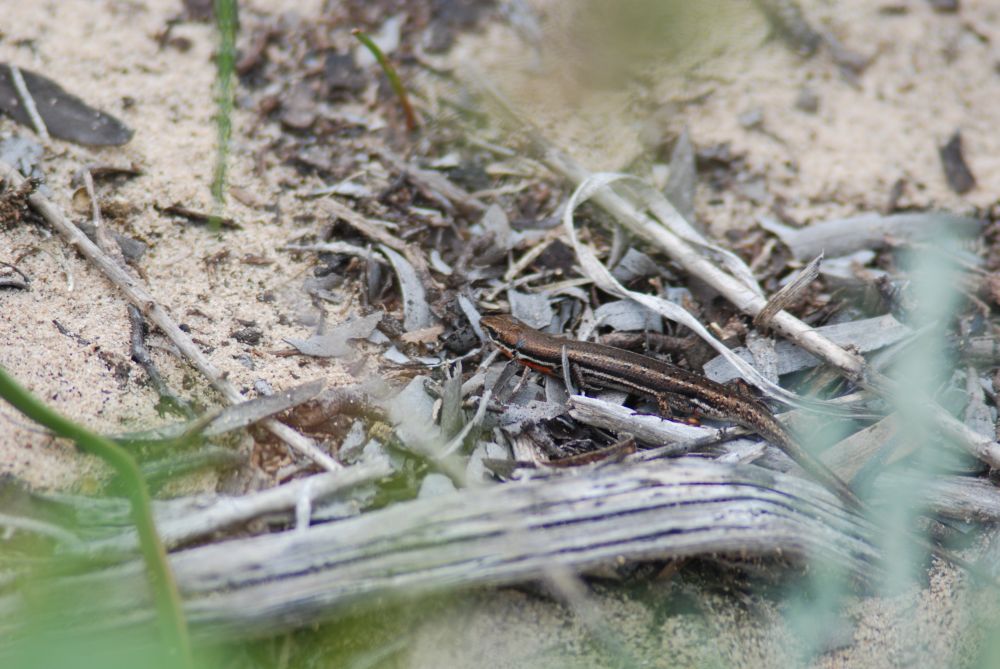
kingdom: Animalia
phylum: Chordata
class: Squamata
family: Scincidae
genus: Morethia
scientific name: Morethia lineoocellata
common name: West coast morethia skink
